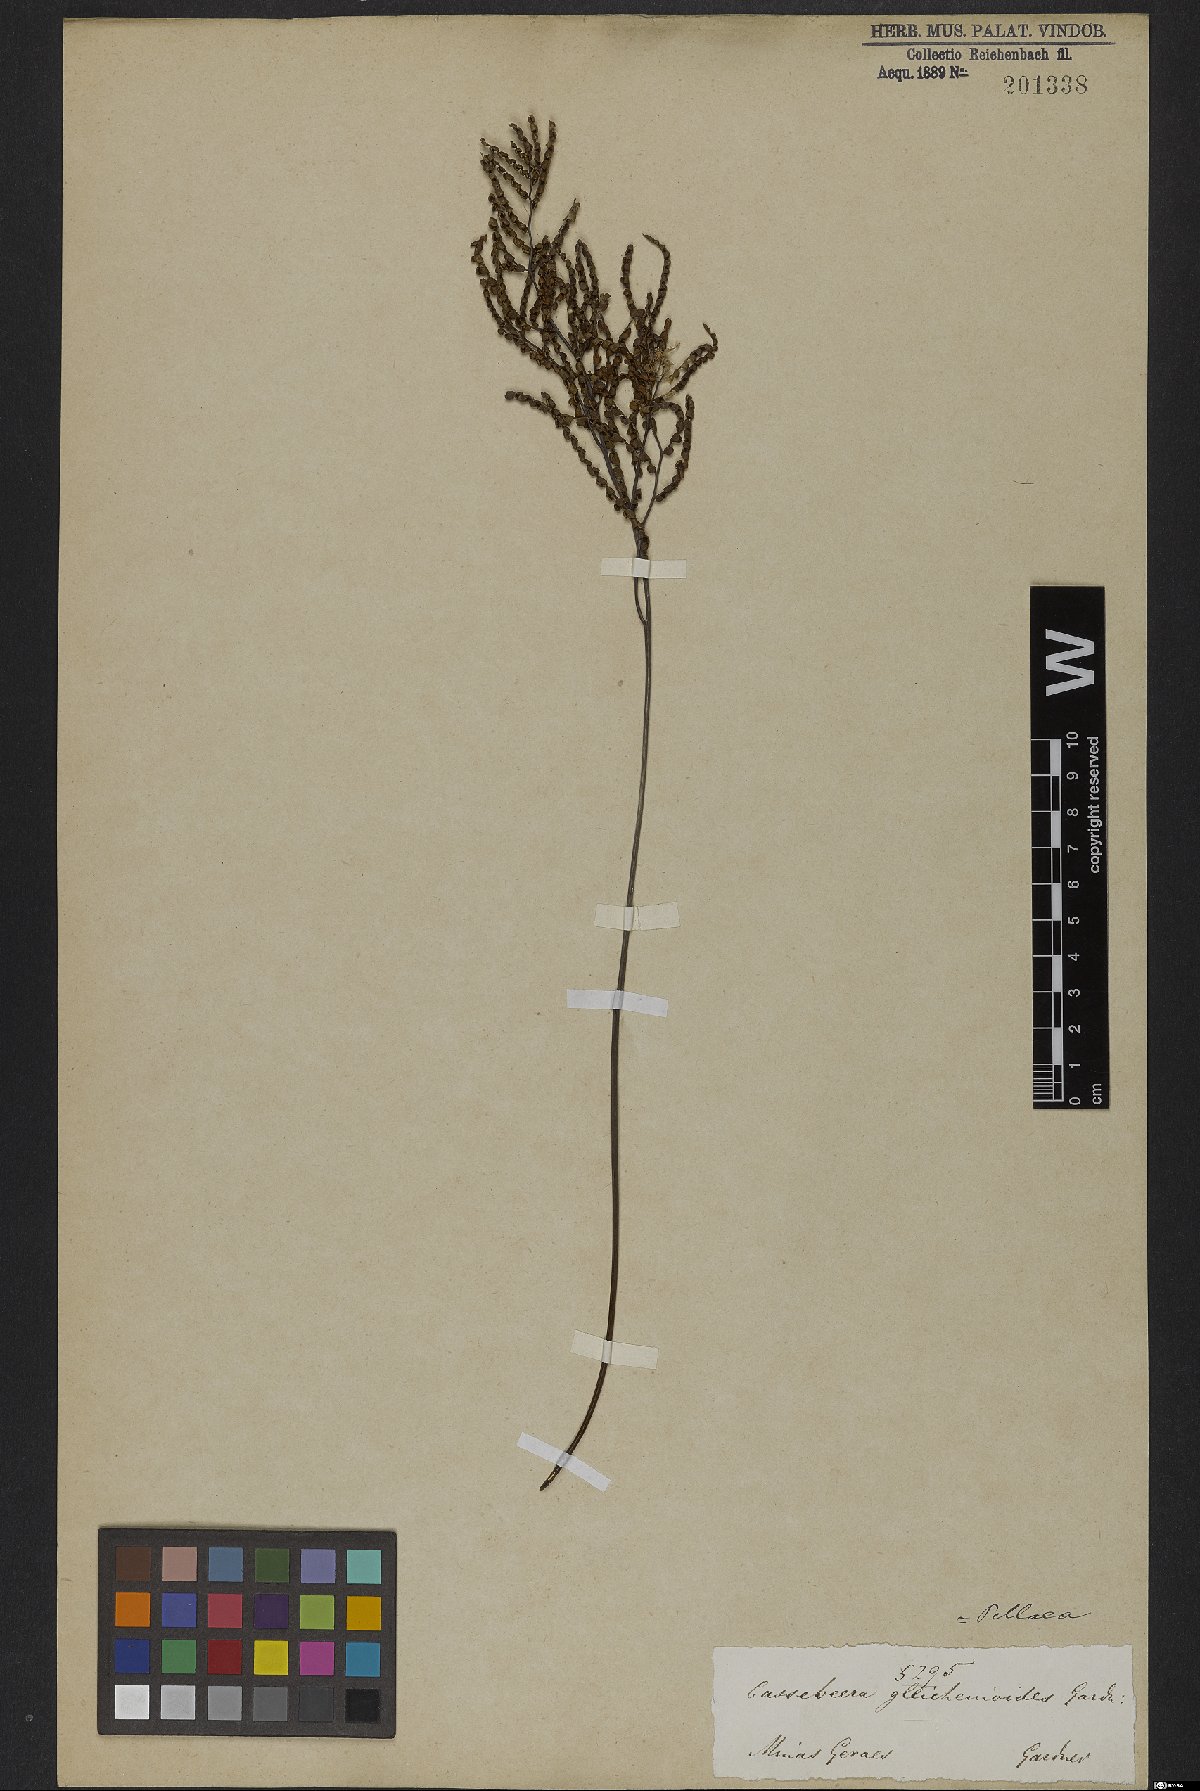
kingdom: Plantae
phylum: Tracheophyta
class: Polypodiopsida
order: Polypodiales
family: Pteridaceae
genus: Ormopteris
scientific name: Ormopteris gleichenioides
